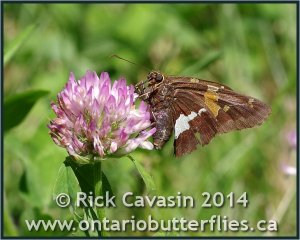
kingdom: Animalia
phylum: Arthropoda
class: Insecta
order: Lepidoptera
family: Hesperiidae
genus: Epargyreus
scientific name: Epargyreus clarus
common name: Silver-spotted Skipper
